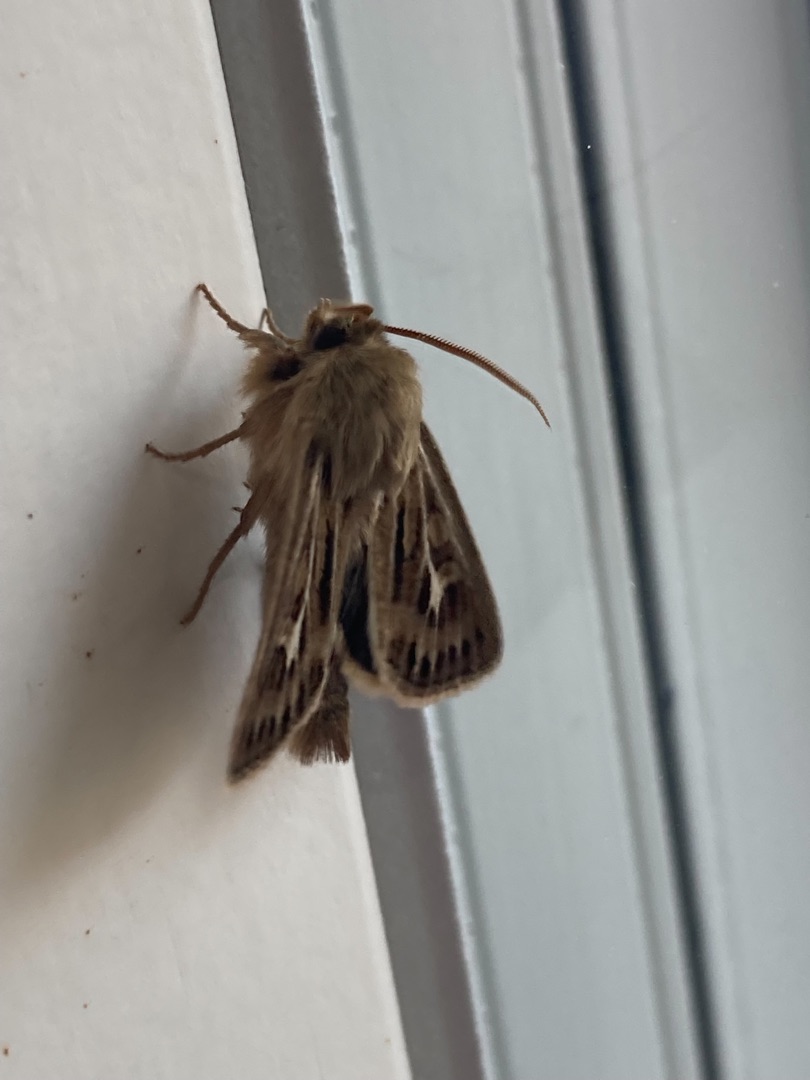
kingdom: Animalia
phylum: Arthropoda
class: Insecta
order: Lepidoptera
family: Noctuidae
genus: Cerapteryx
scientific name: Cerapteryx graminis
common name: Mosebunkeugle
